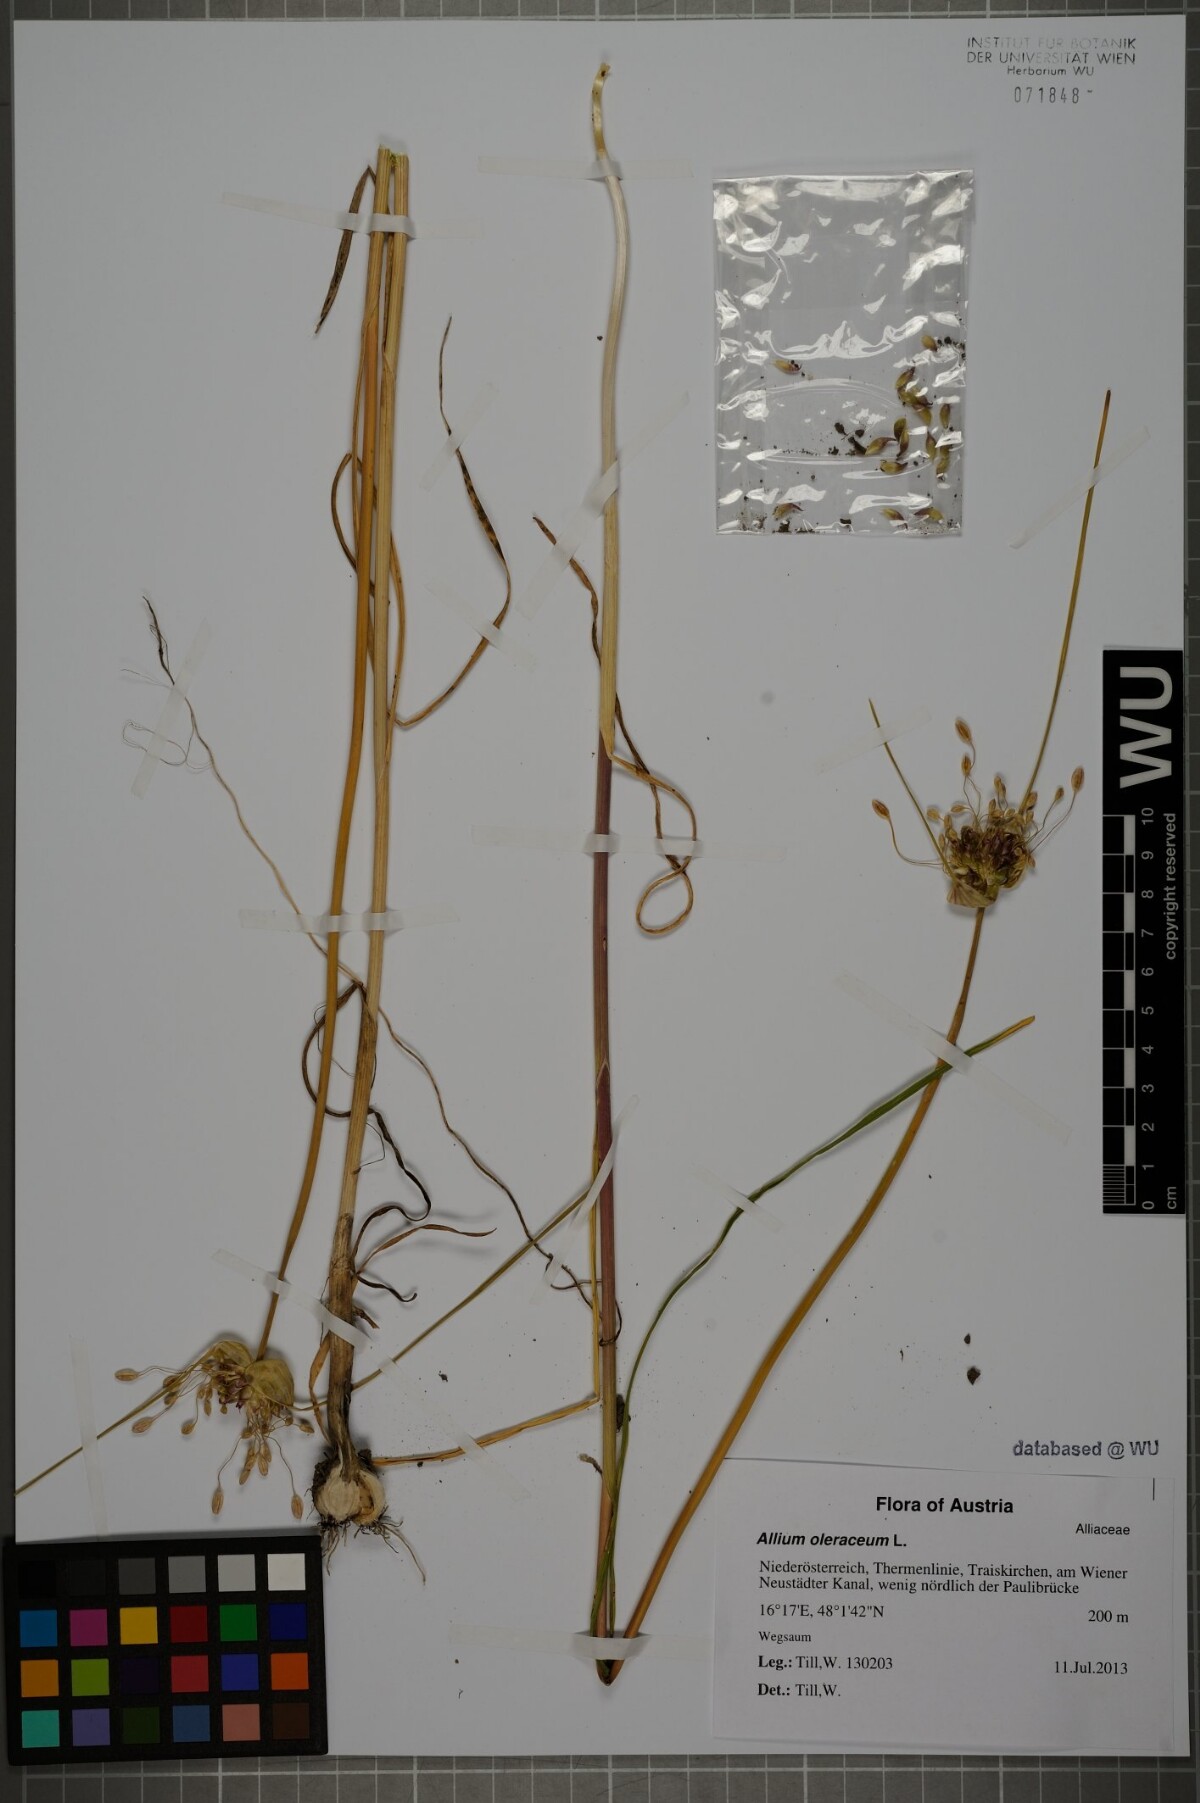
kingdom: Plantae
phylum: Tracheophyta
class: Liliopsida
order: Asparagales
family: Amaryllidaceae
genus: Allium
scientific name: Allium oleraceum
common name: Field garlic
